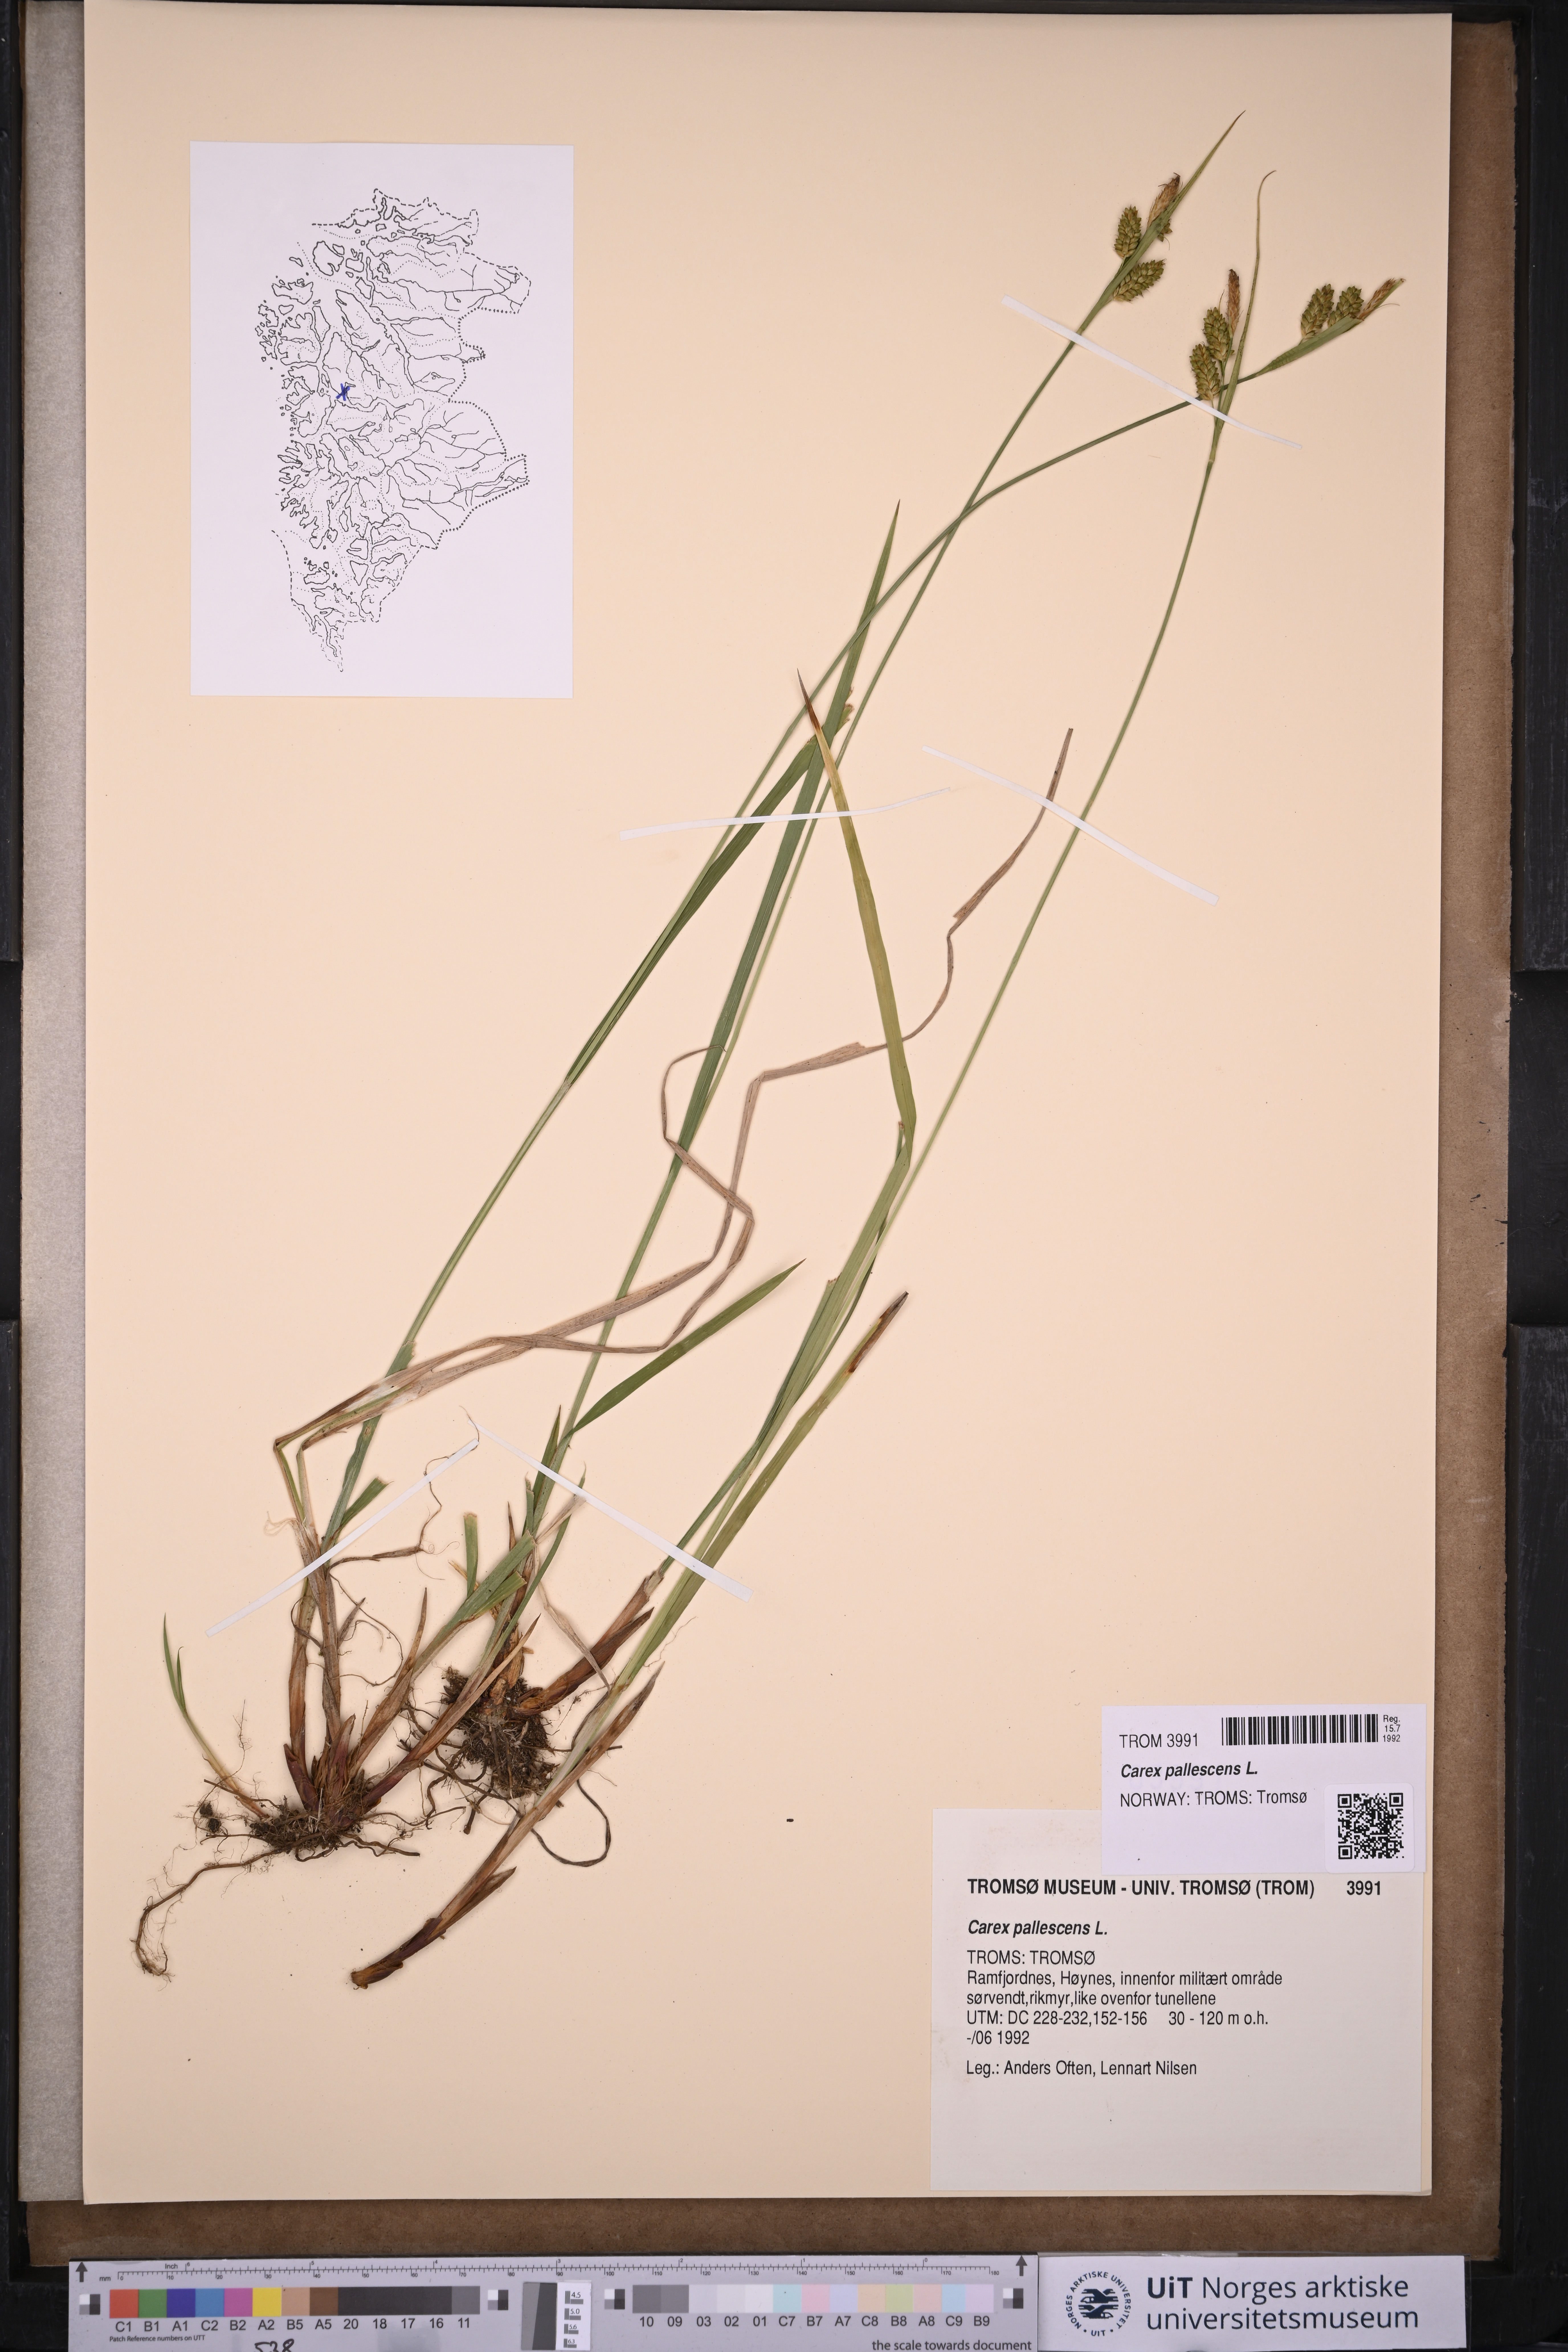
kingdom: Plantae
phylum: Tracheophyta
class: Liliopsida
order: Poales
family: Cyperaceae
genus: Carex
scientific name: Carex pallescens
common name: Pale sedge
